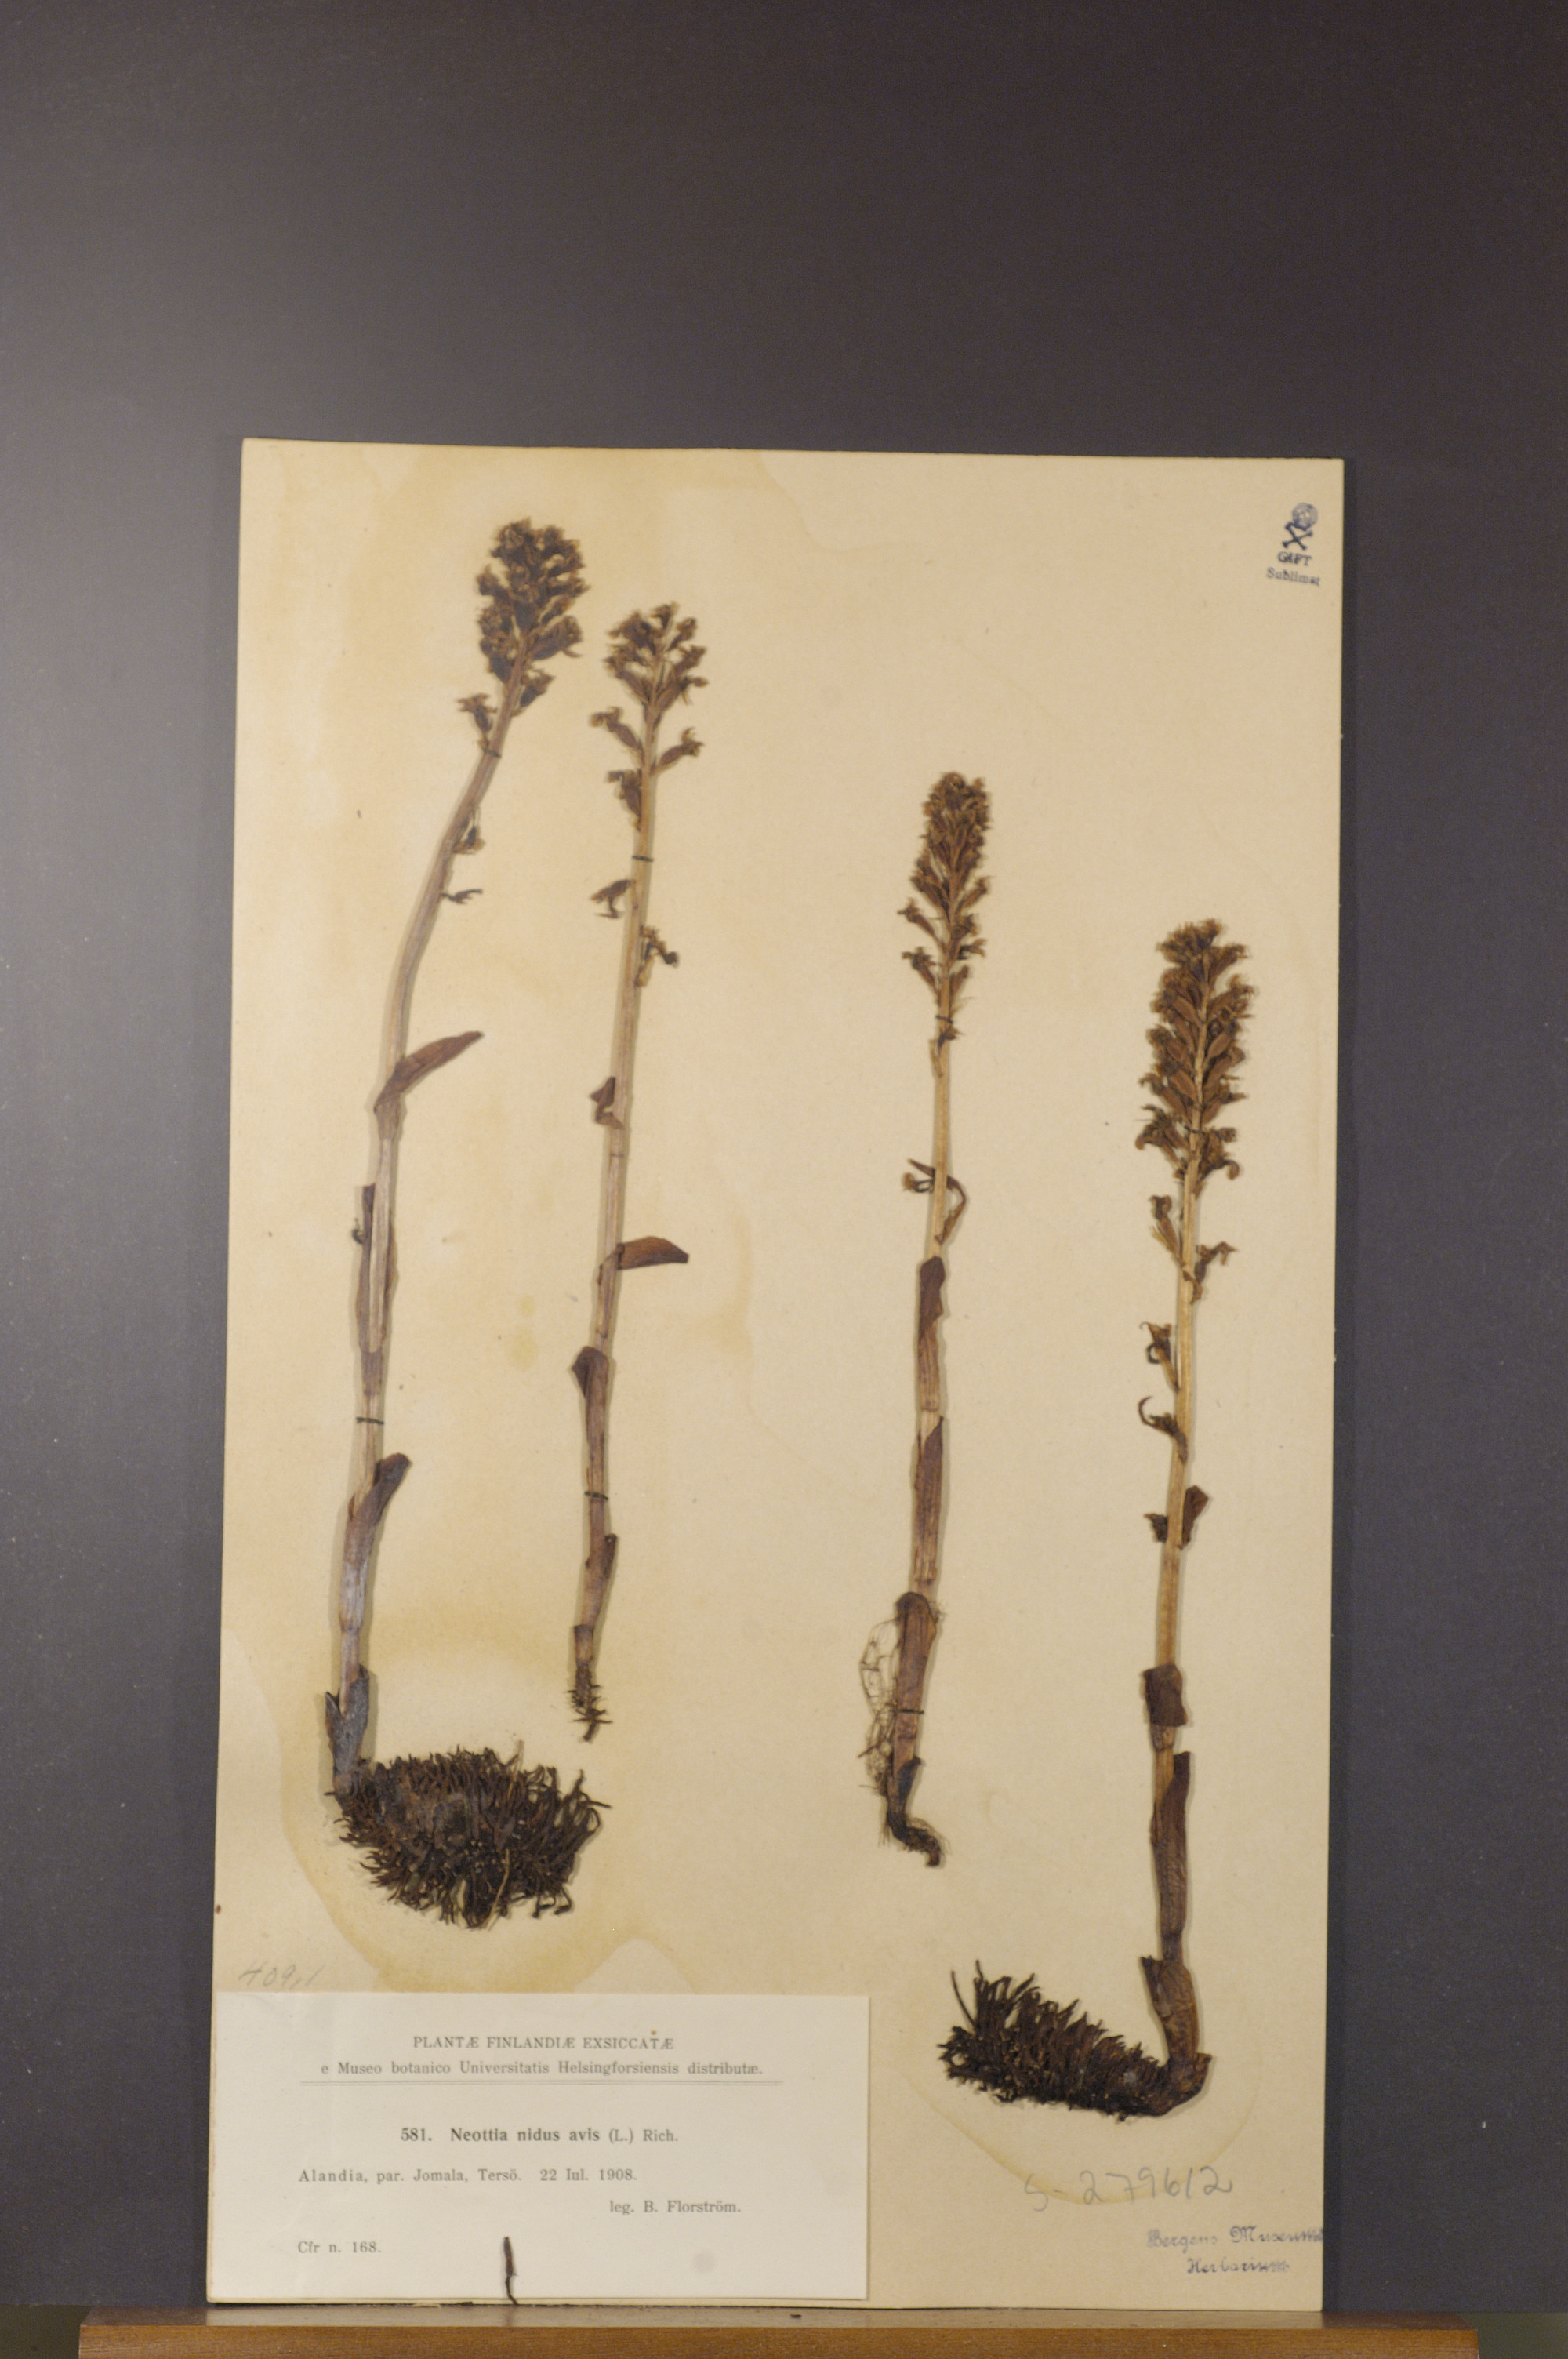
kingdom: Plantae
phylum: Tracheophyta
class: Liliopsida
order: Asparagales
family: Orchidaceae
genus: Neottia
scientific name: Neottia nidus-avis
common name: Bird's-nest orchid
